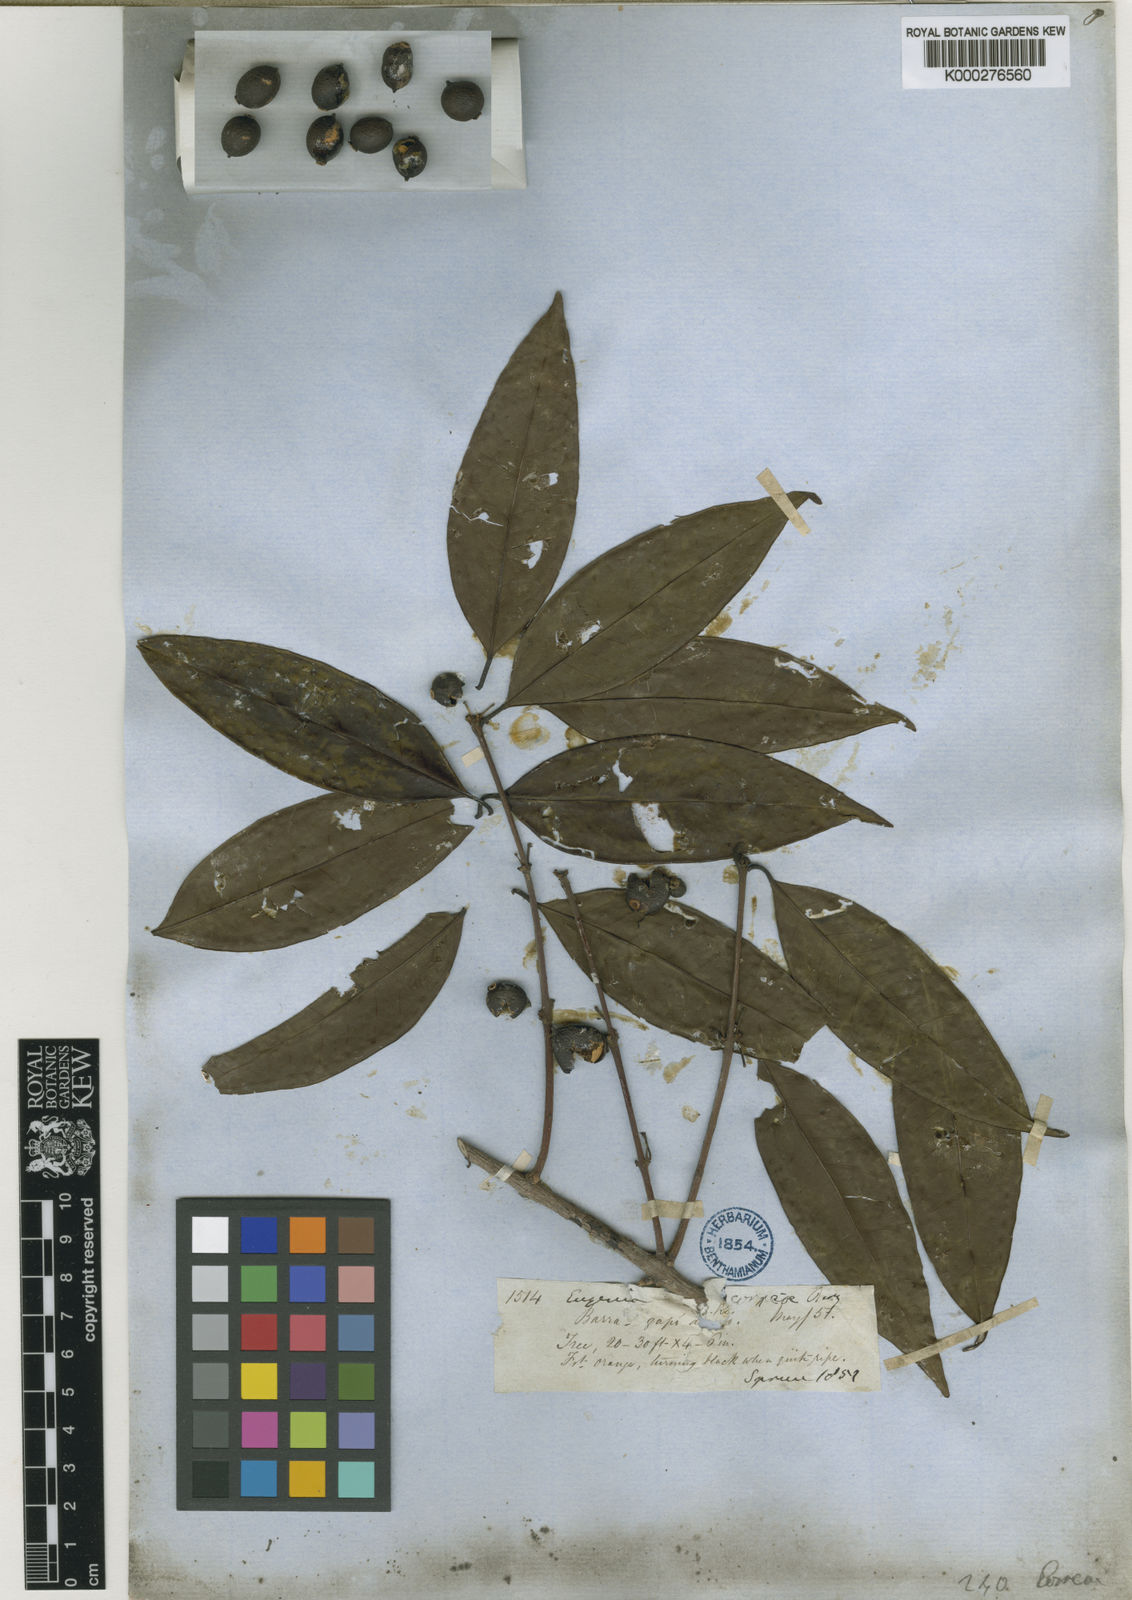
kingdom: Plantae
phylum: Tracheophyta
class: Magnoliopsida
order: Myrtales
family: Myrtaceae
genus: Eugenia
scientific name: Eugenia lambertiana
